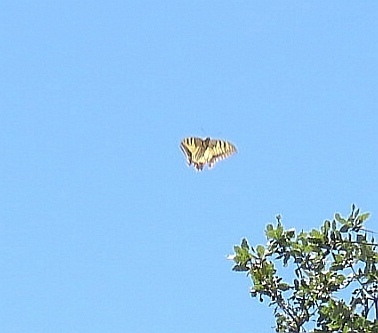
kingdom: Animalia
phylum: Arthropoda
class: Insecta
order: Lepidoptera
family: Papilionidae
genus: Papilio
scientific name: Papilio machaon
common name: Swallowtail
